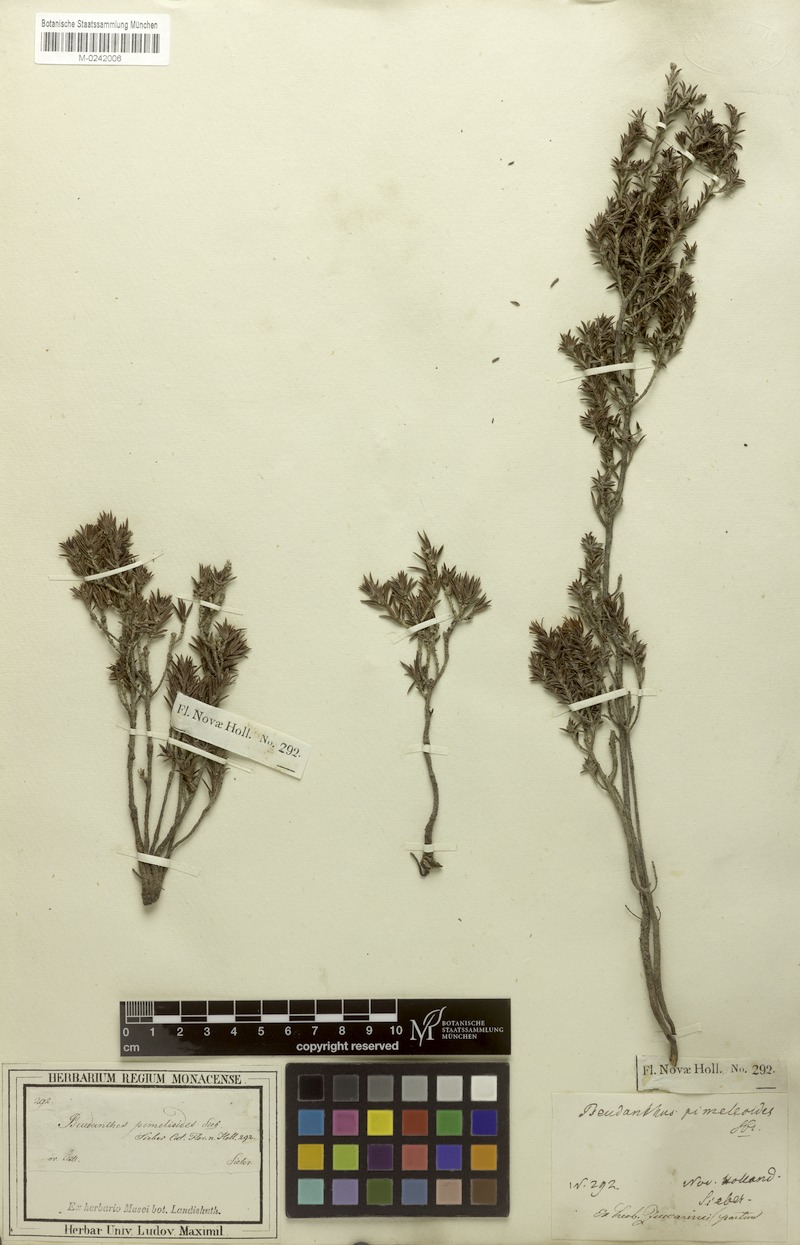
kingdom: Plantae
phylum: Tracheophyta
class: Magnoliopsida
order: Malpighiales
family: Picrodendraceae
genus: Pseudanthus
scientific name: Pseudanthus pimeleoides
